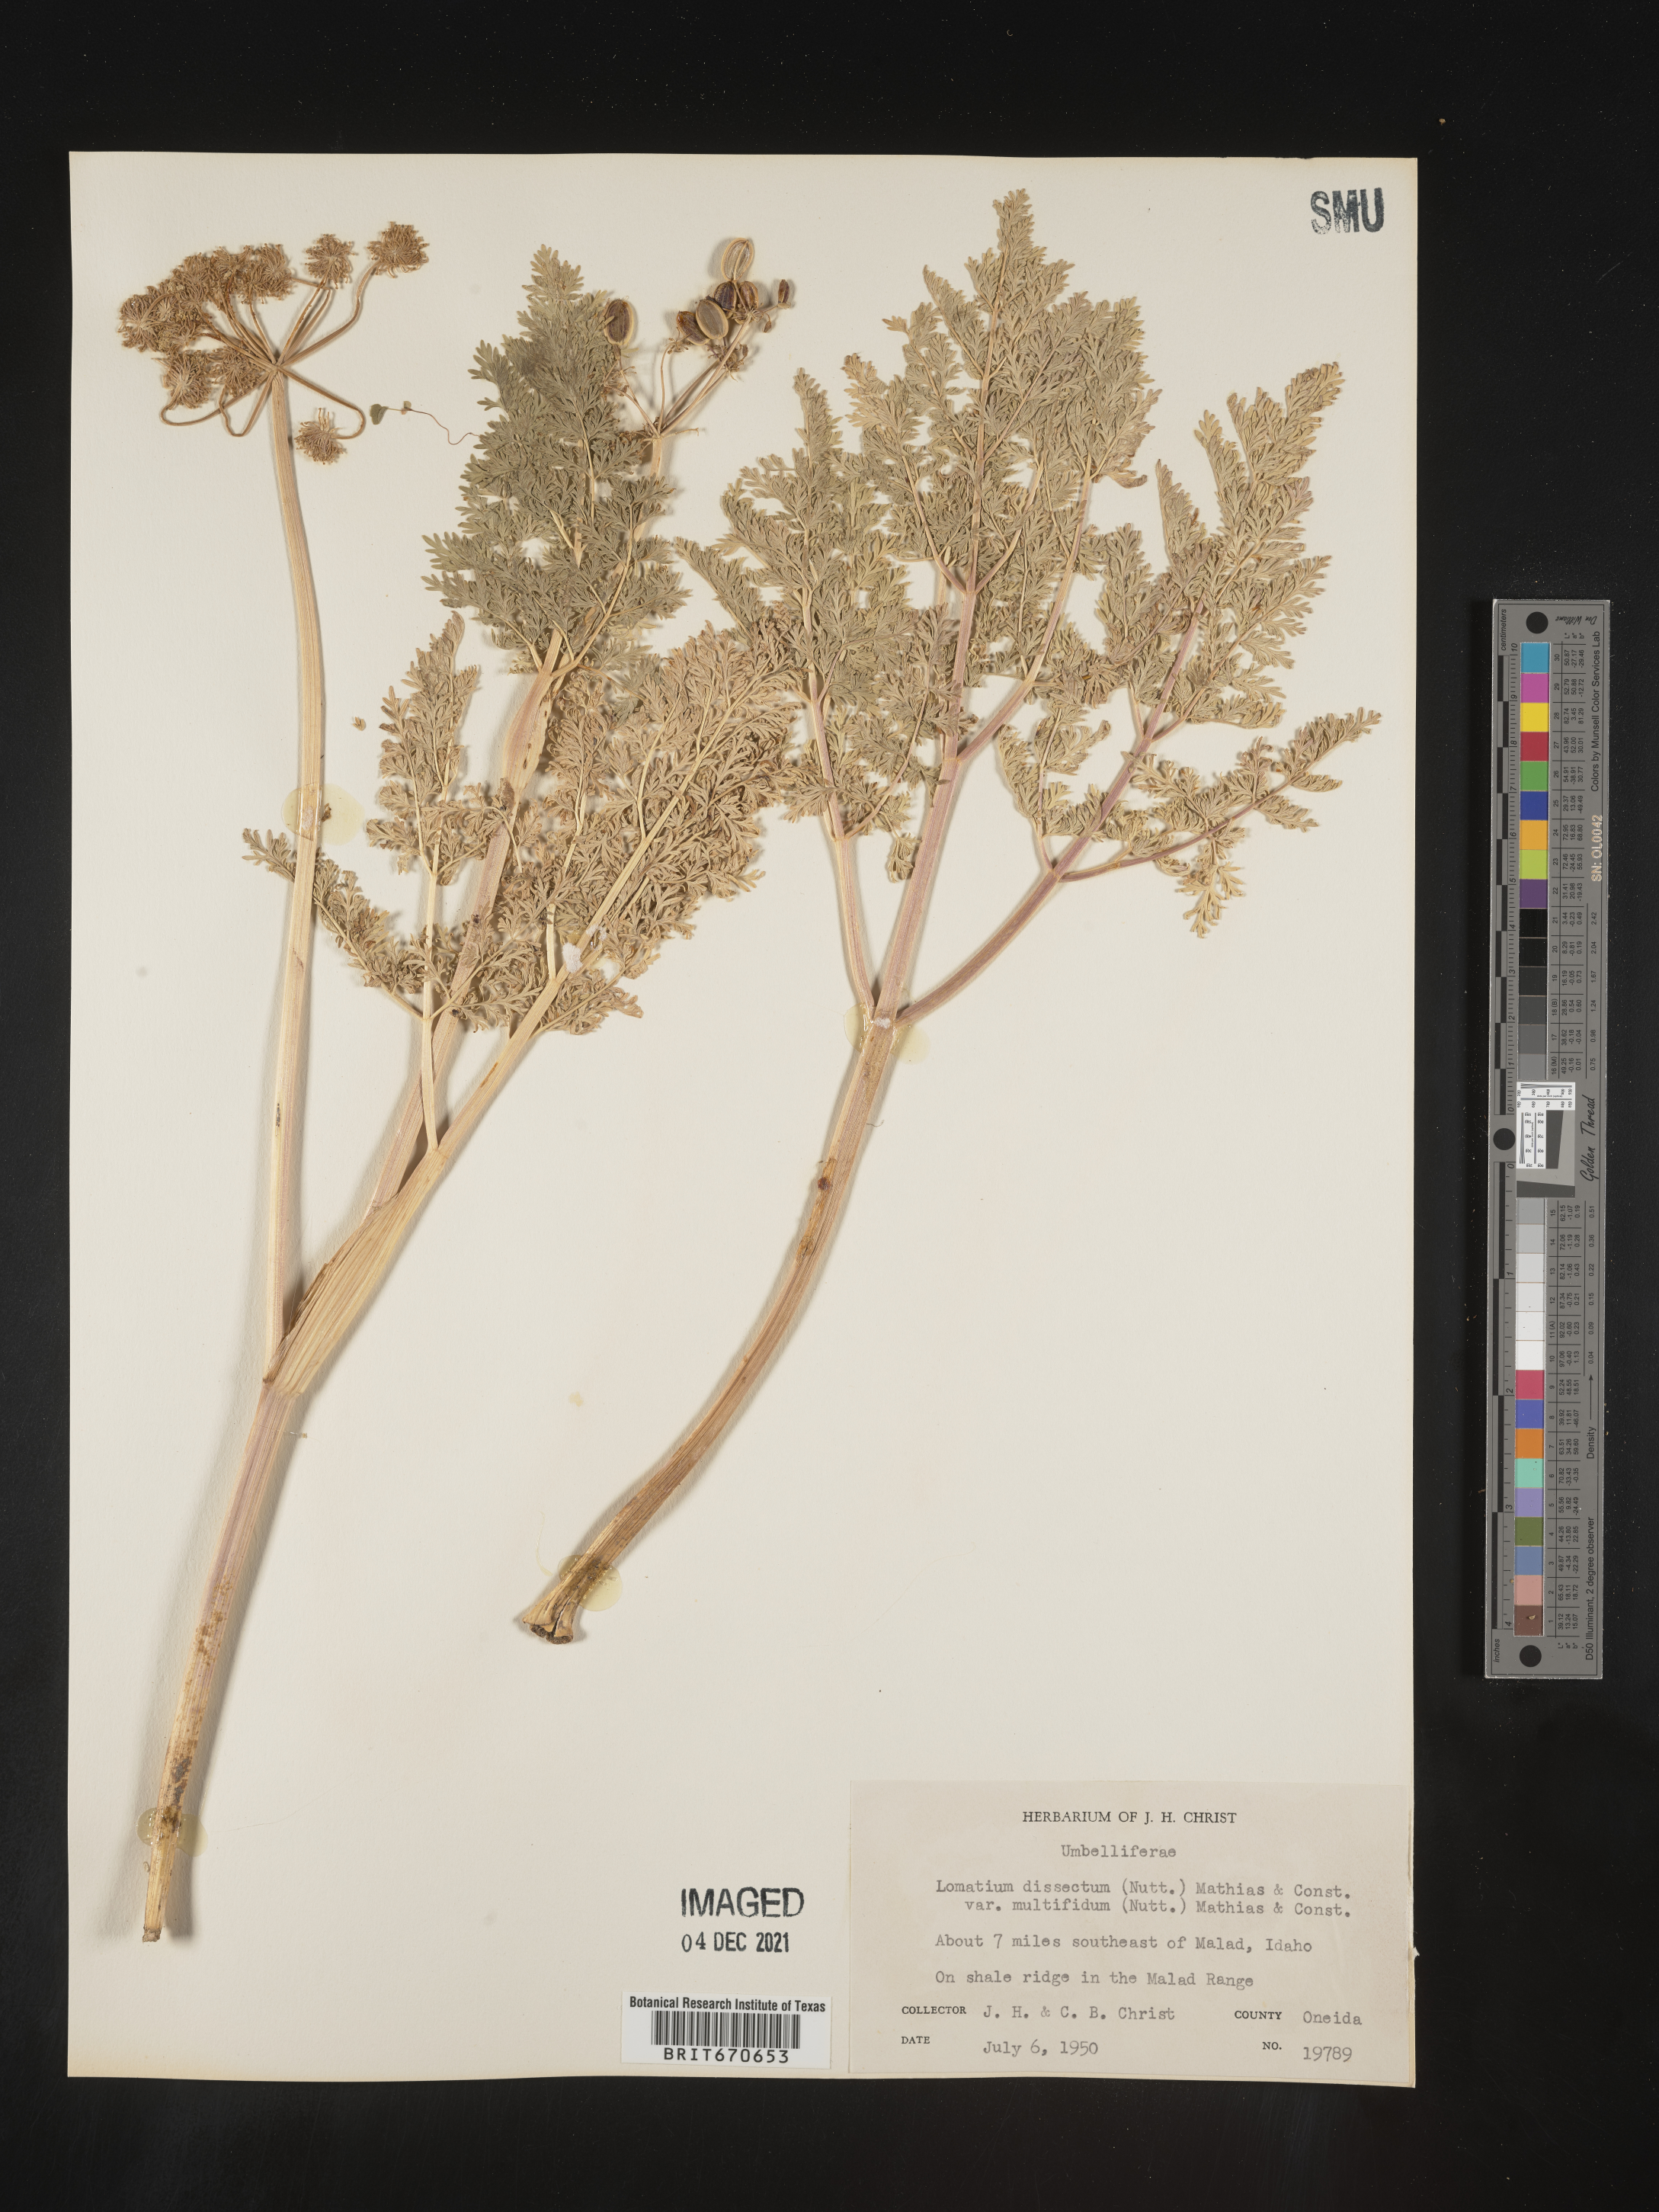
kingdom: Plantae
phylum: Tracheophyta
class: Magnoliopsida
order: Apiales
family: Apiaceae
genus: Lomatium
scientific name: Lomatium dissectum
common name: Lomatium
